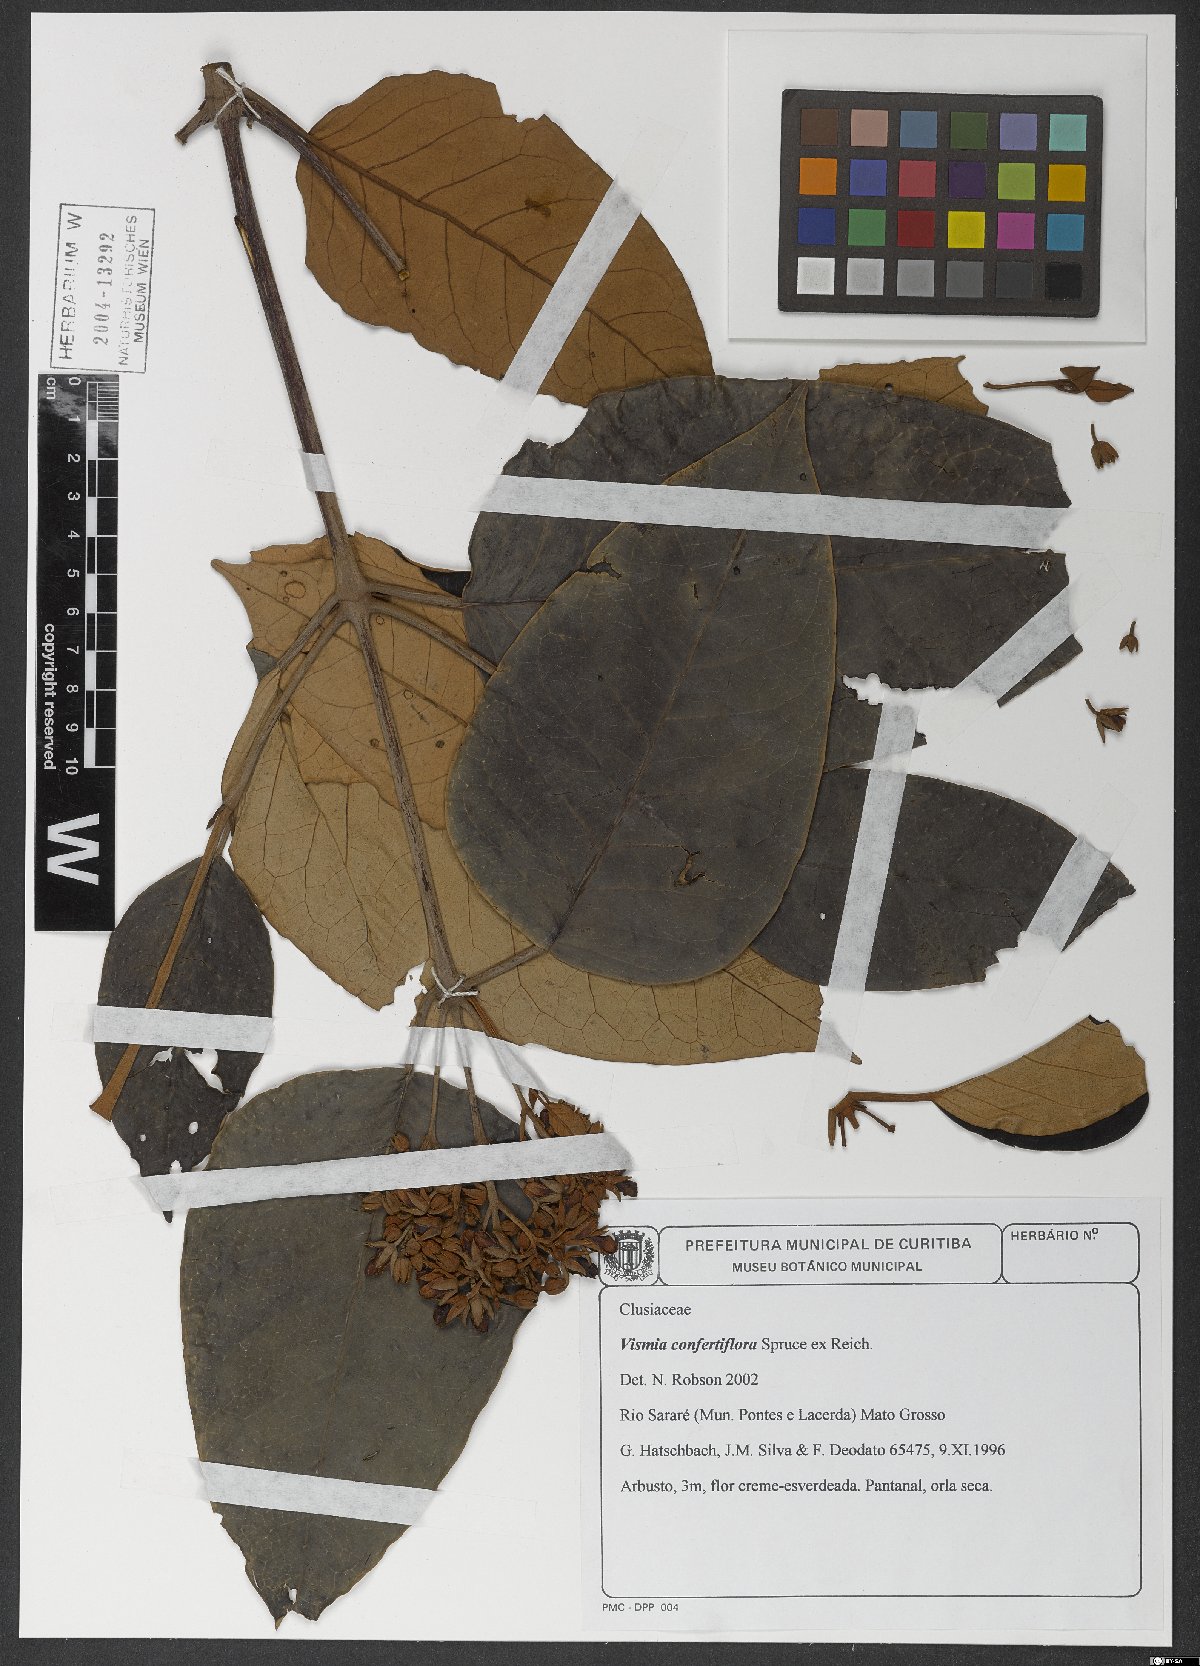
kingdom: Plantae
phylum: Tracheophyta
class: Magnoliopsida
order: Malpighiales
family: Hypericaceae
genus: Vismia
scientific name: Vismia baccifera
